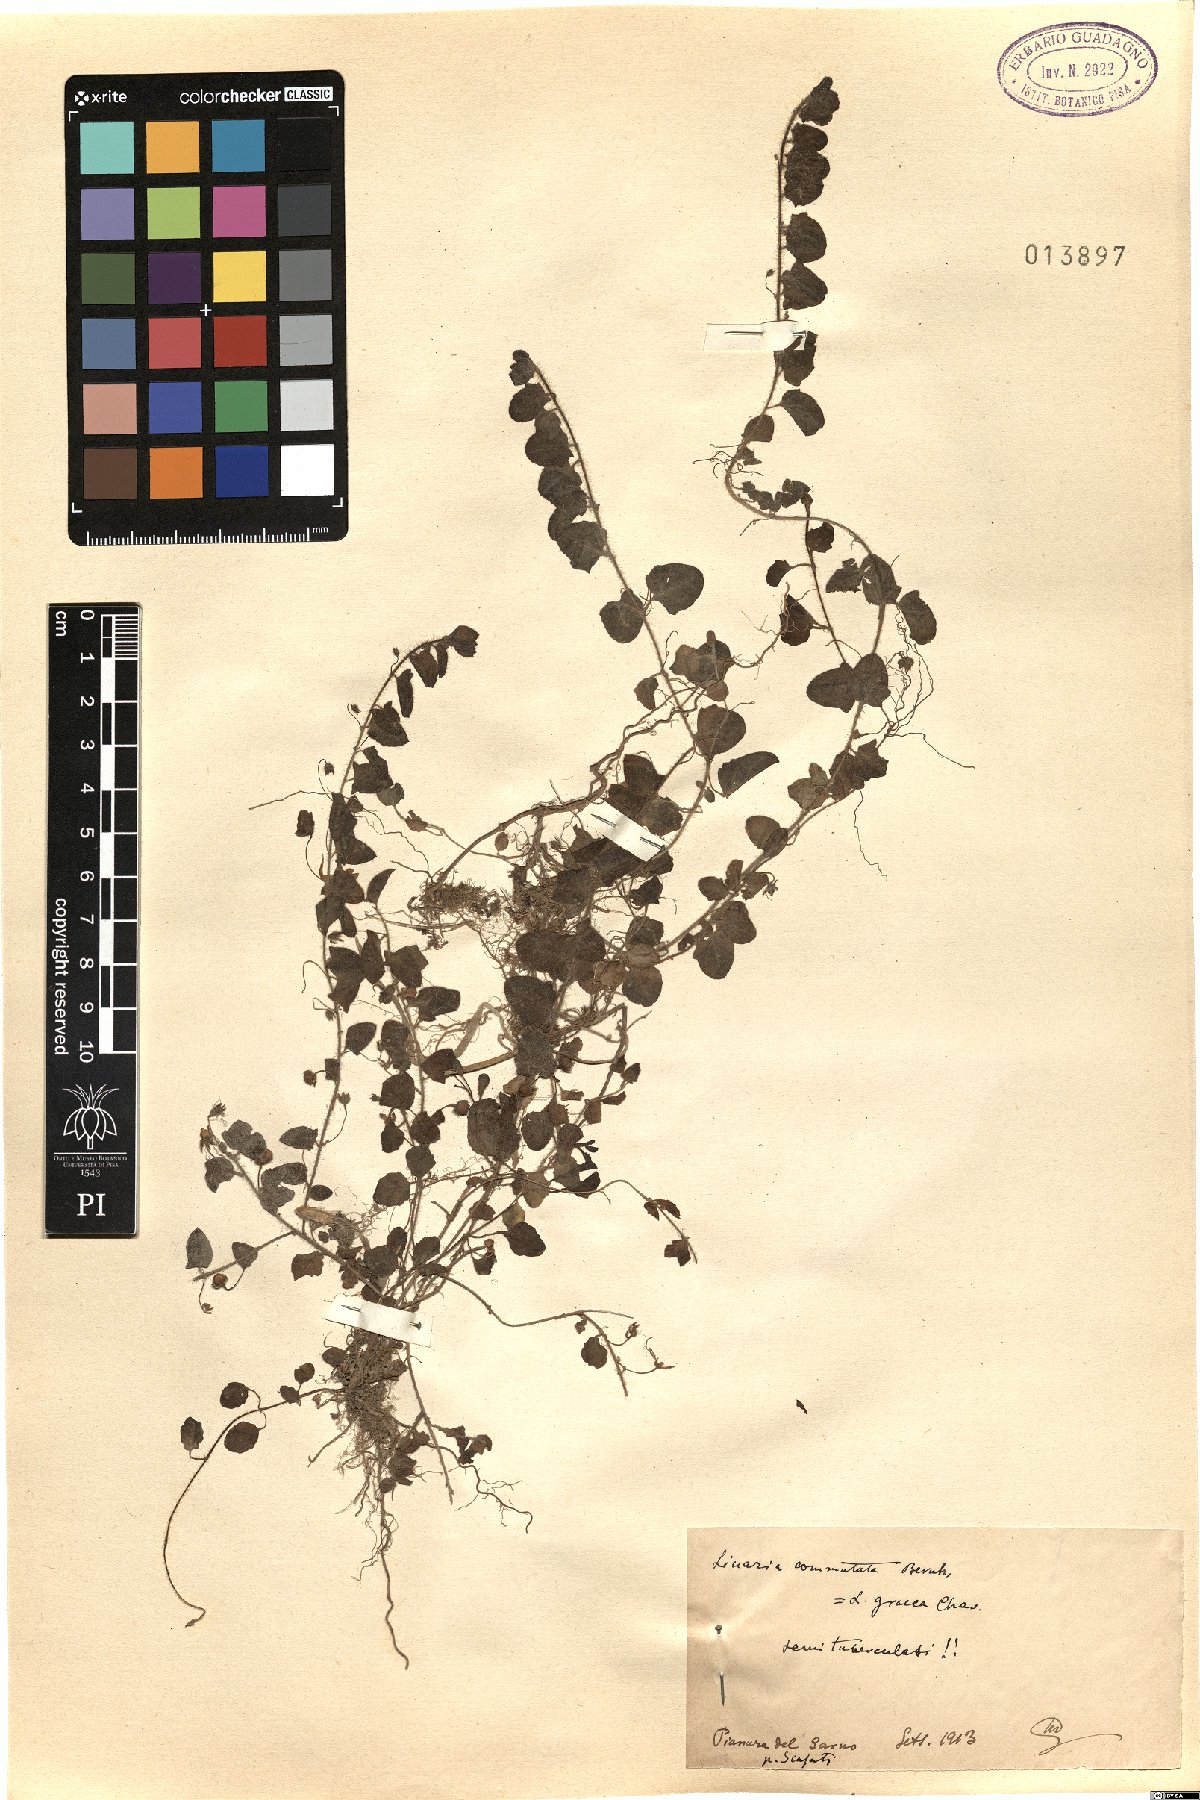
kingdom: Plantae
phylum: Tracheophyta
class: Magnoliopsida
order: Lamiales
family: Plantaginaceae
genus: Kickxia
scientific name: Kickxia elatine
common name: Sharp-leaved fluellen
